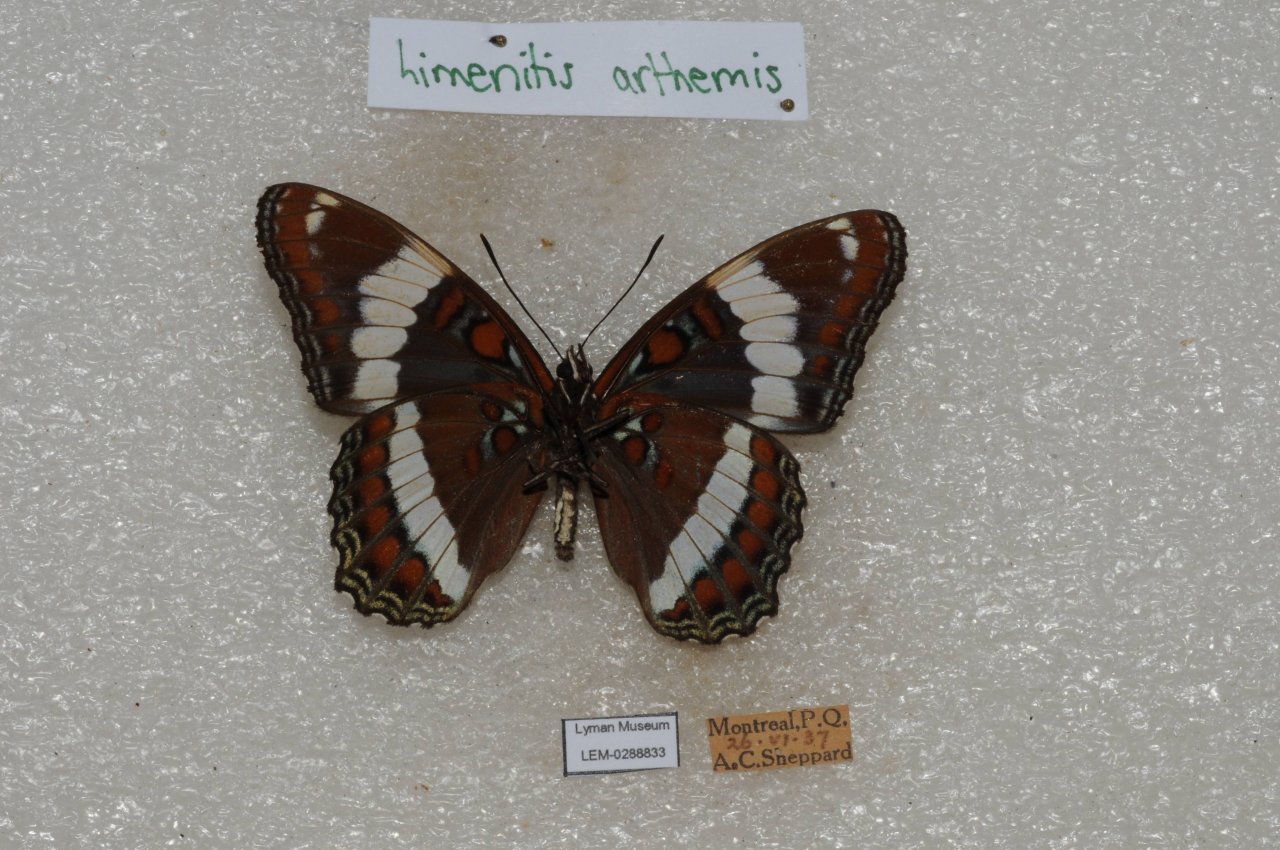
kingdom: Animalia
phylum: Arthropoda
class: Insecta
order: Lepidoptera
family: Nymphalidae
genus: Limenitis
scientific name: Limenitis arthemis
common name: Red-spotted Admiral
